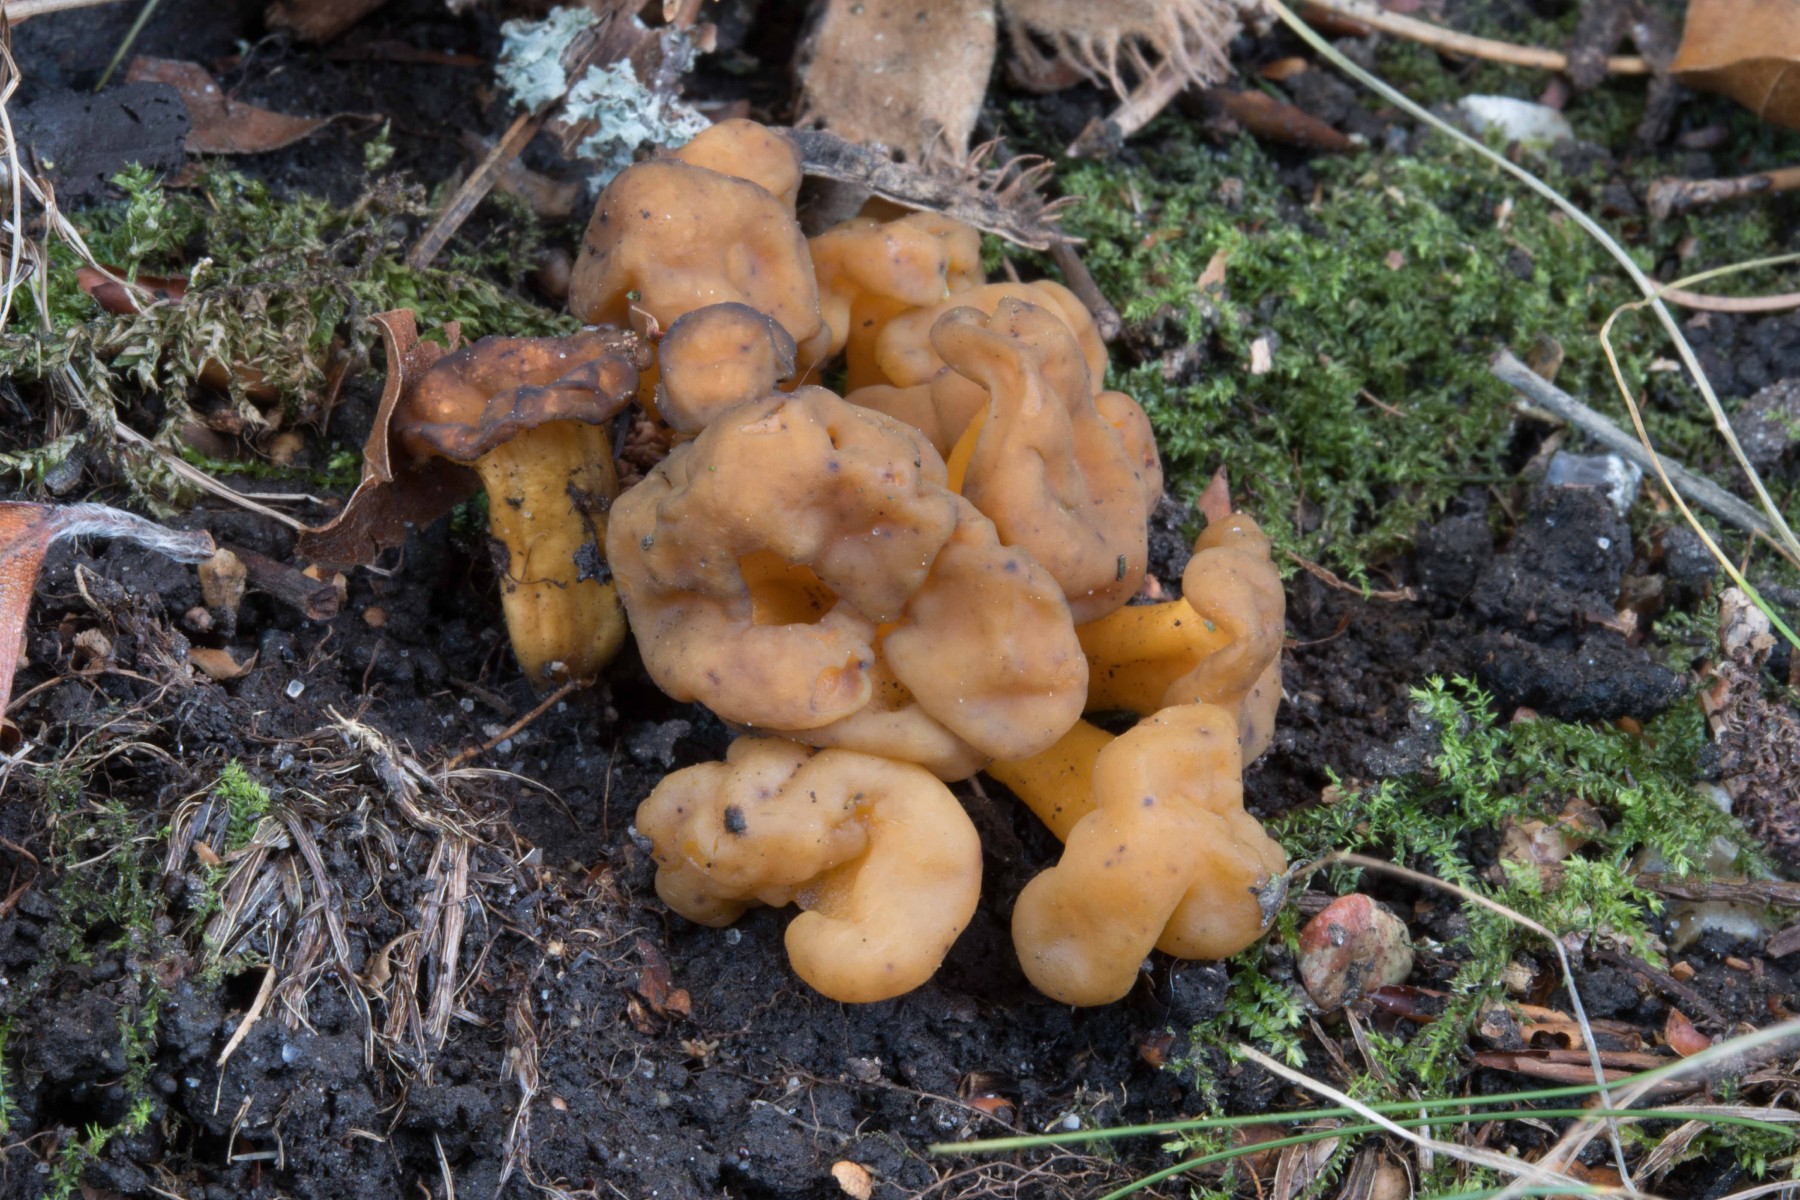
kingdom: Fungi
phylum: Ascomycota
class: Leotiomycetes
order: Leotiales
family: Leotiaceae
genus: Leotia
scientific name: Leotia lubrica
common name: ravsvamp
